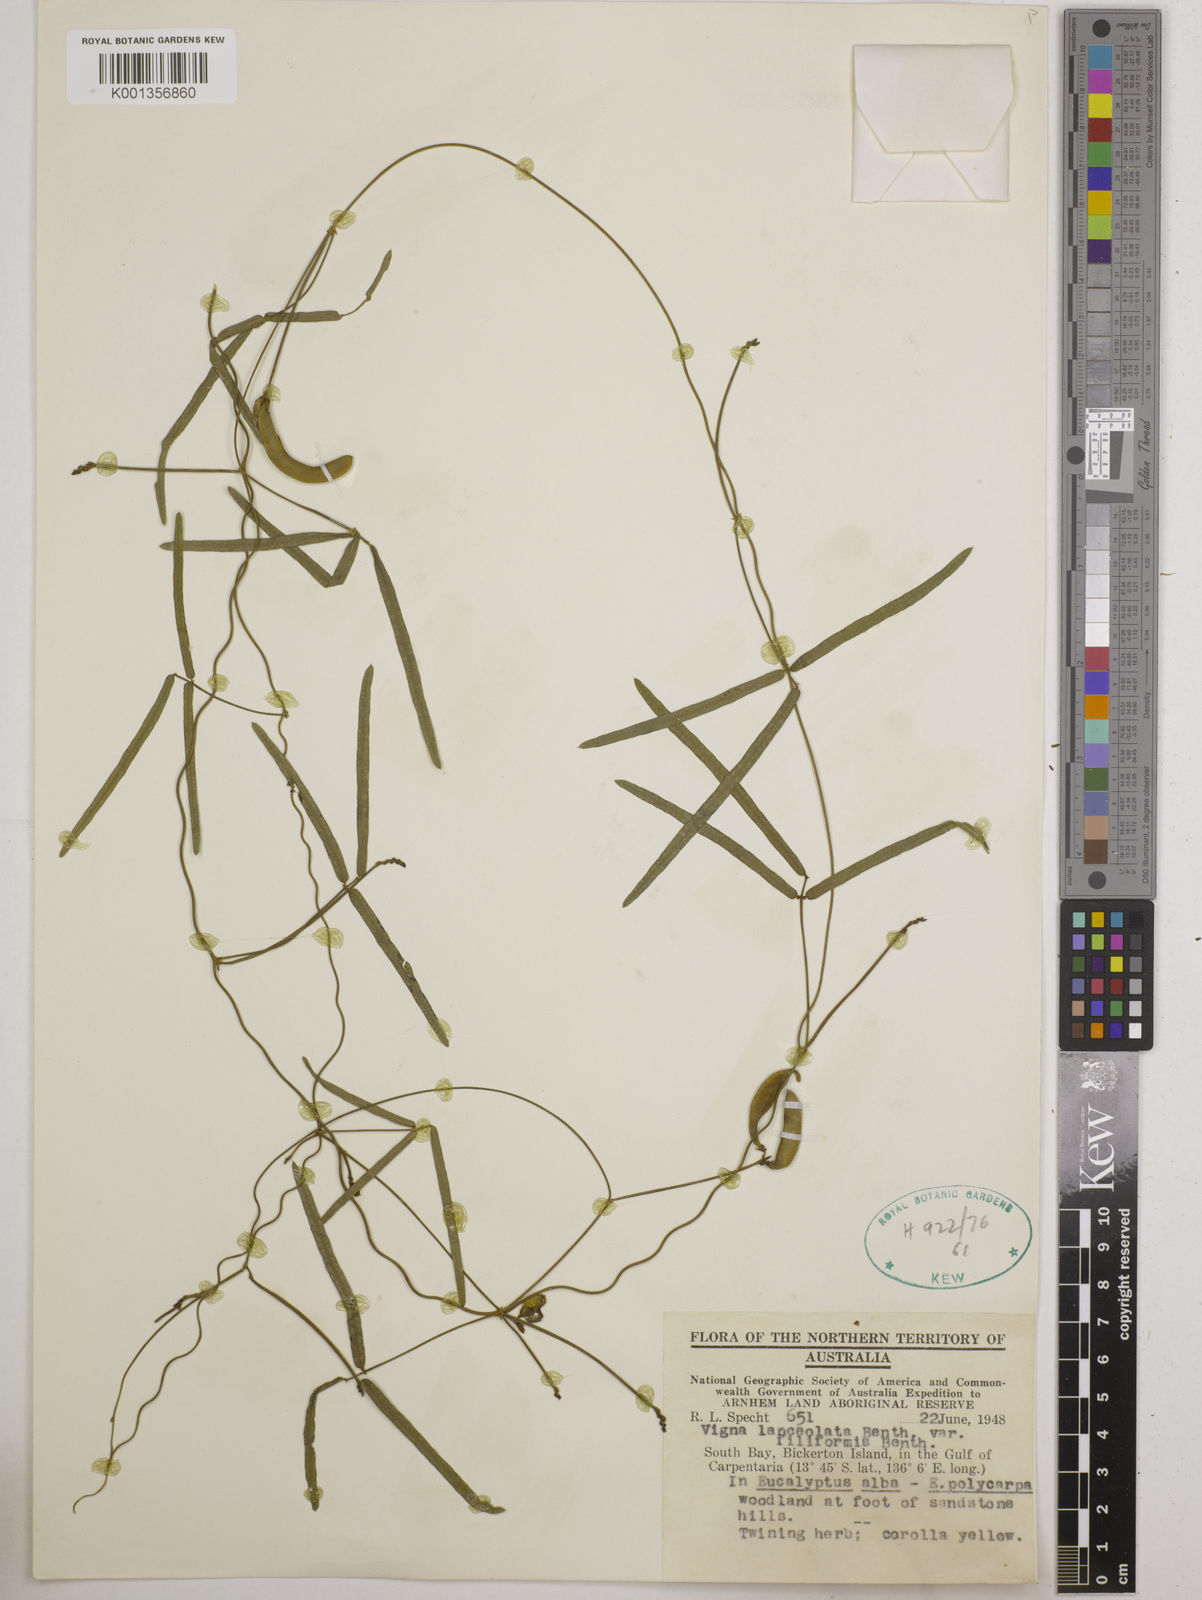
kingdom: Plantae
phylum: Tracheophyta
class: Magnoliopsida
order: Fabales
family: Fabaceae
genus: Vigna
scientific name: Vigna lanceolata
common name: Maloga-bean
